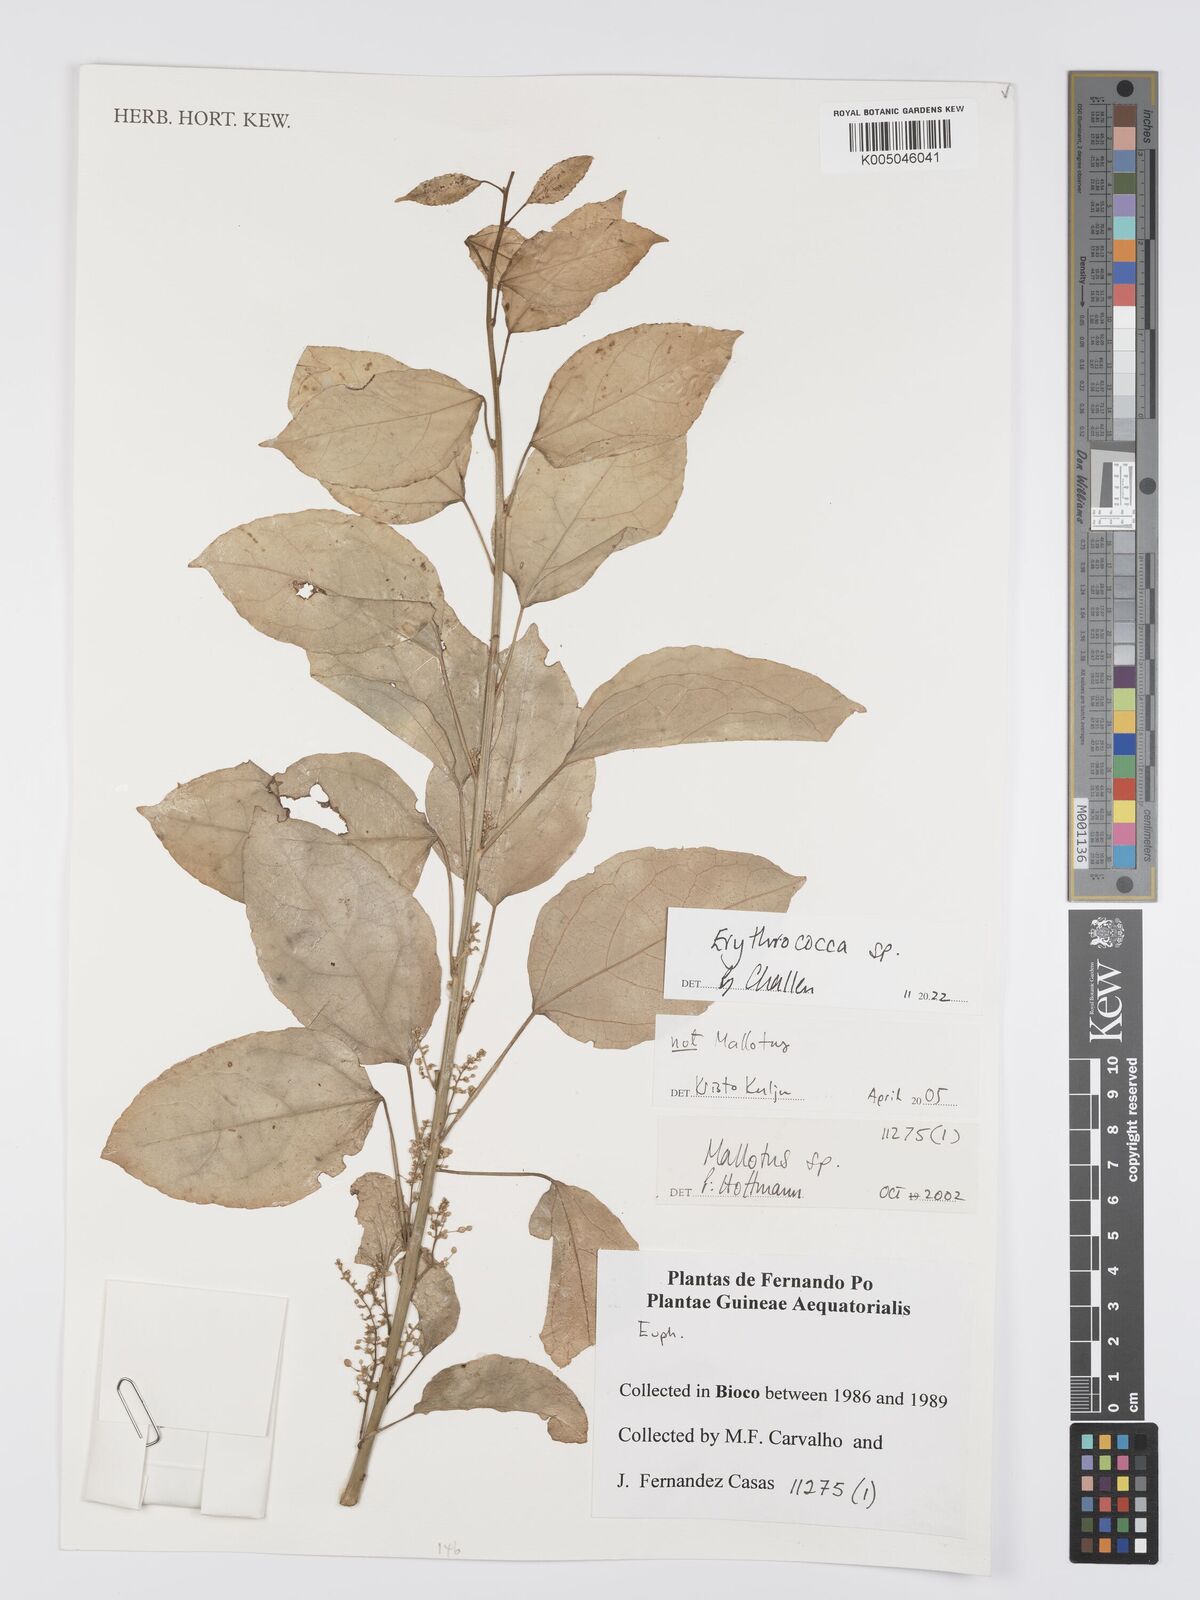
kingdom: Plantae
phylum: Tracheophyta
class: Magnoliopsida
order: Malpighiales
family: Euphorbiaceae
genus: Erythrococca
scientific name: Erythrococca
